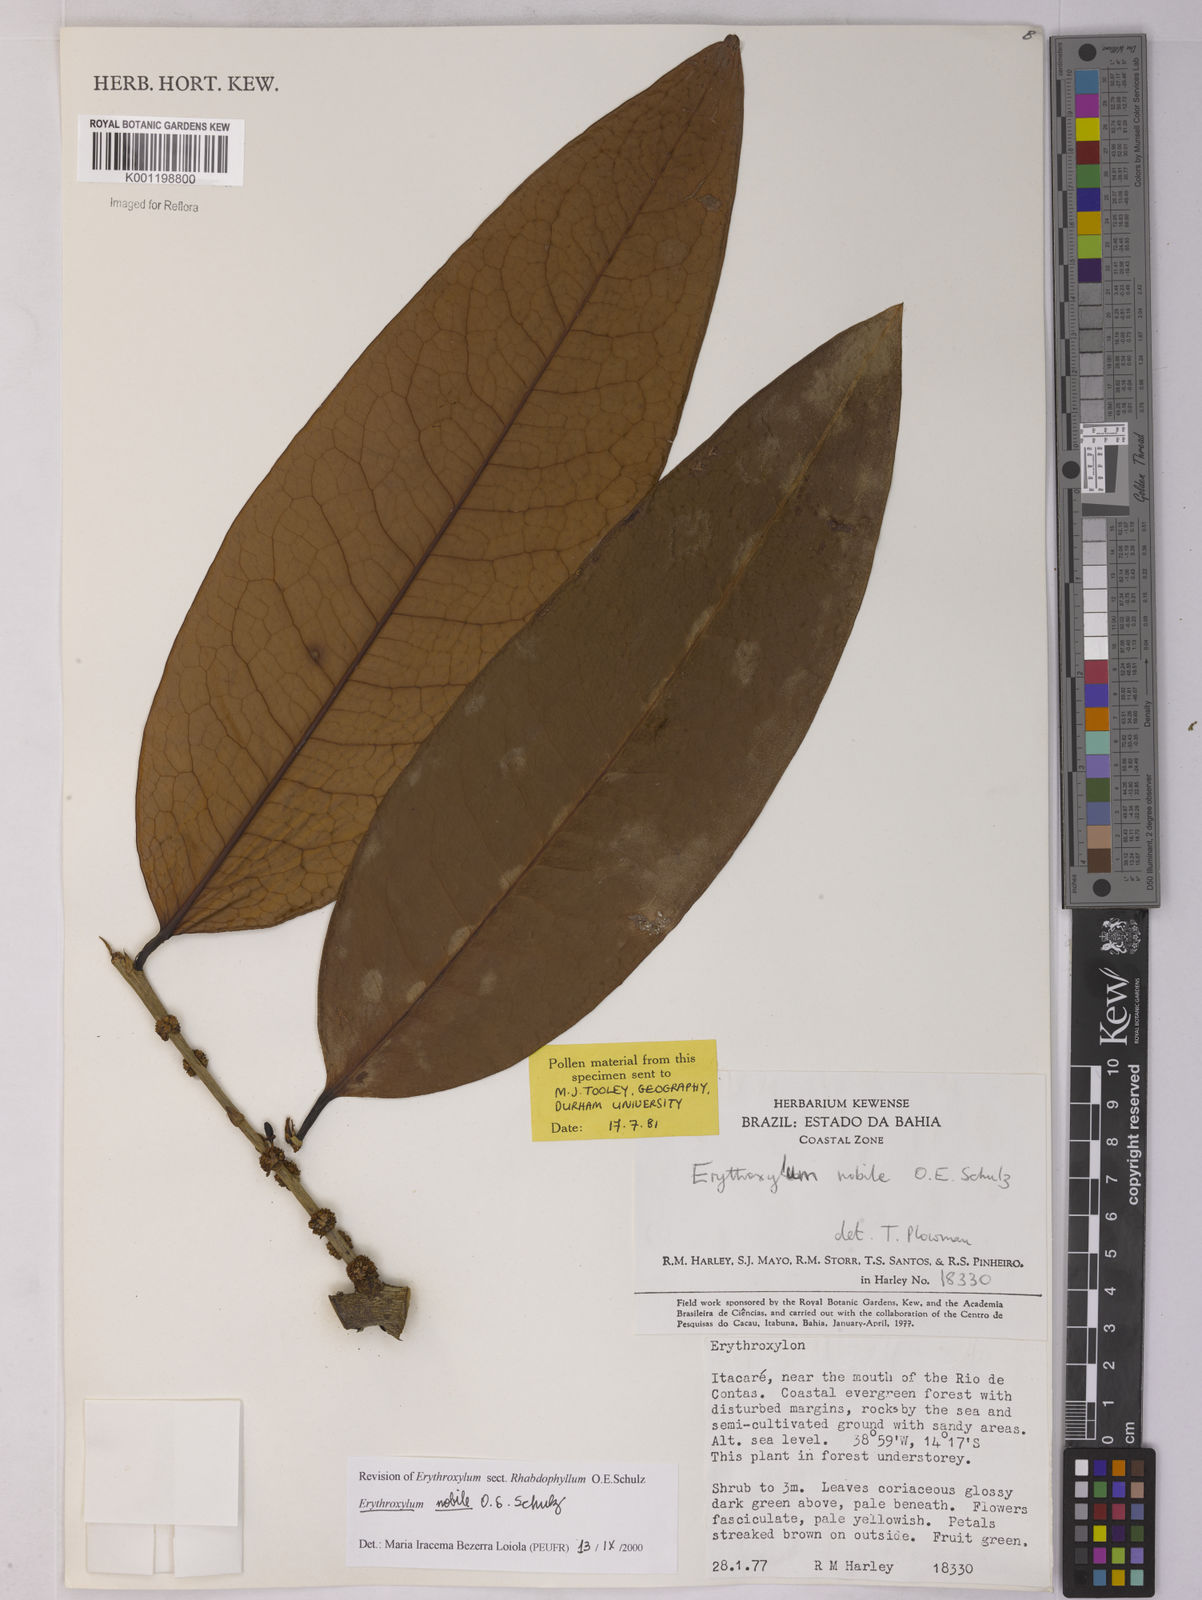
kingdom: Plantae
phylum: Tracheophyta
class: Magnoliopsida
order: Malpighiales
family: Erythroxylaceae
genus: Erythroxylum
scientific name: Erythroxylum nobile
